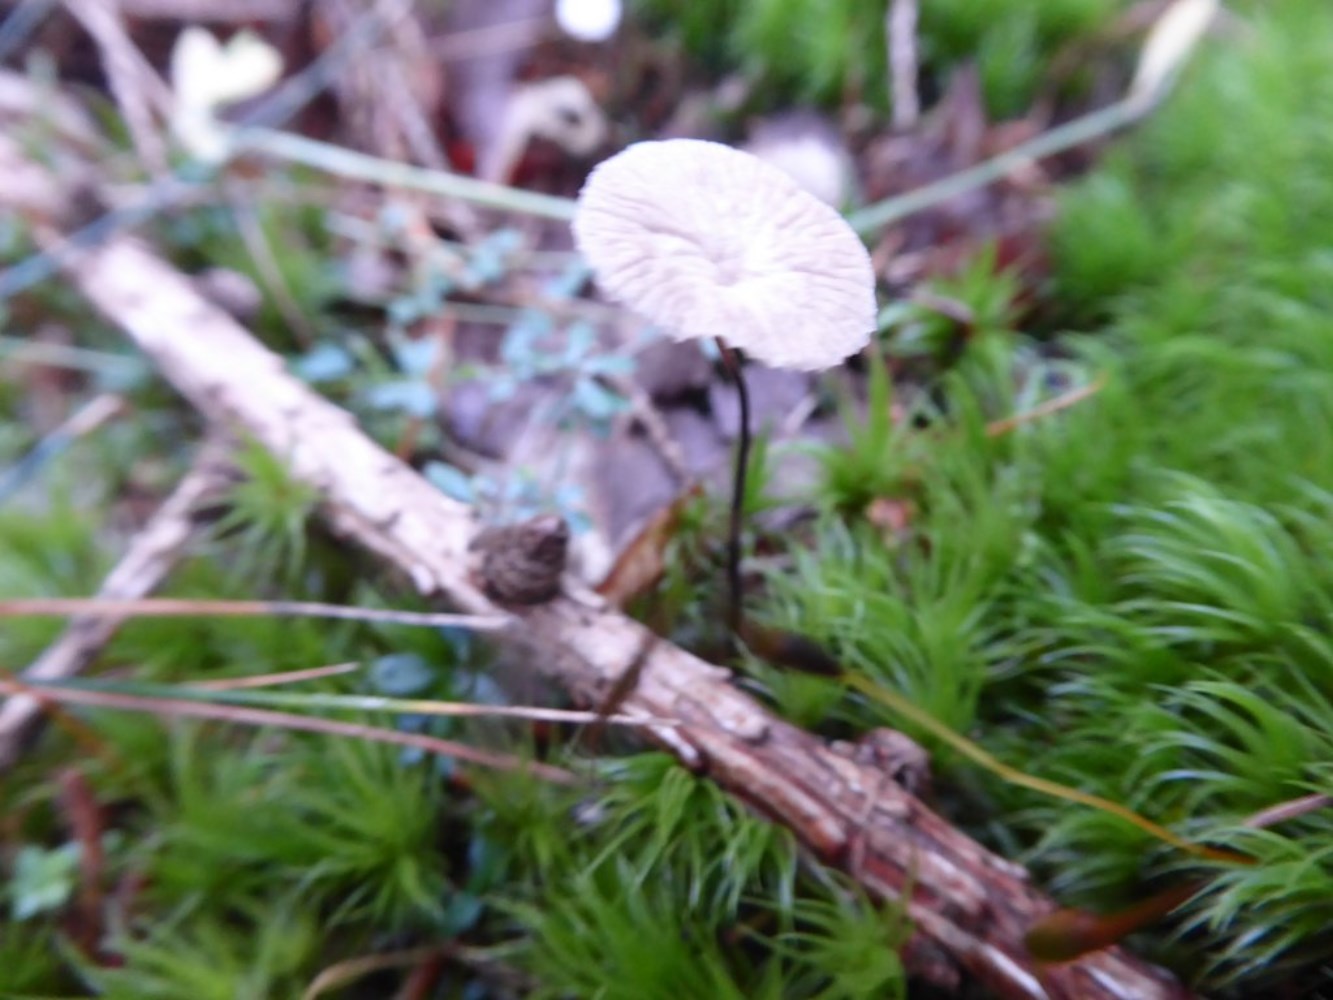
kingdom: Fungi
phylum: Basidiomycota
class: Agaricomycetes
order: Agaricales
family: Omphalotaceae
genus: Paragymnopus
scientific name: Paragymnopus perforans
